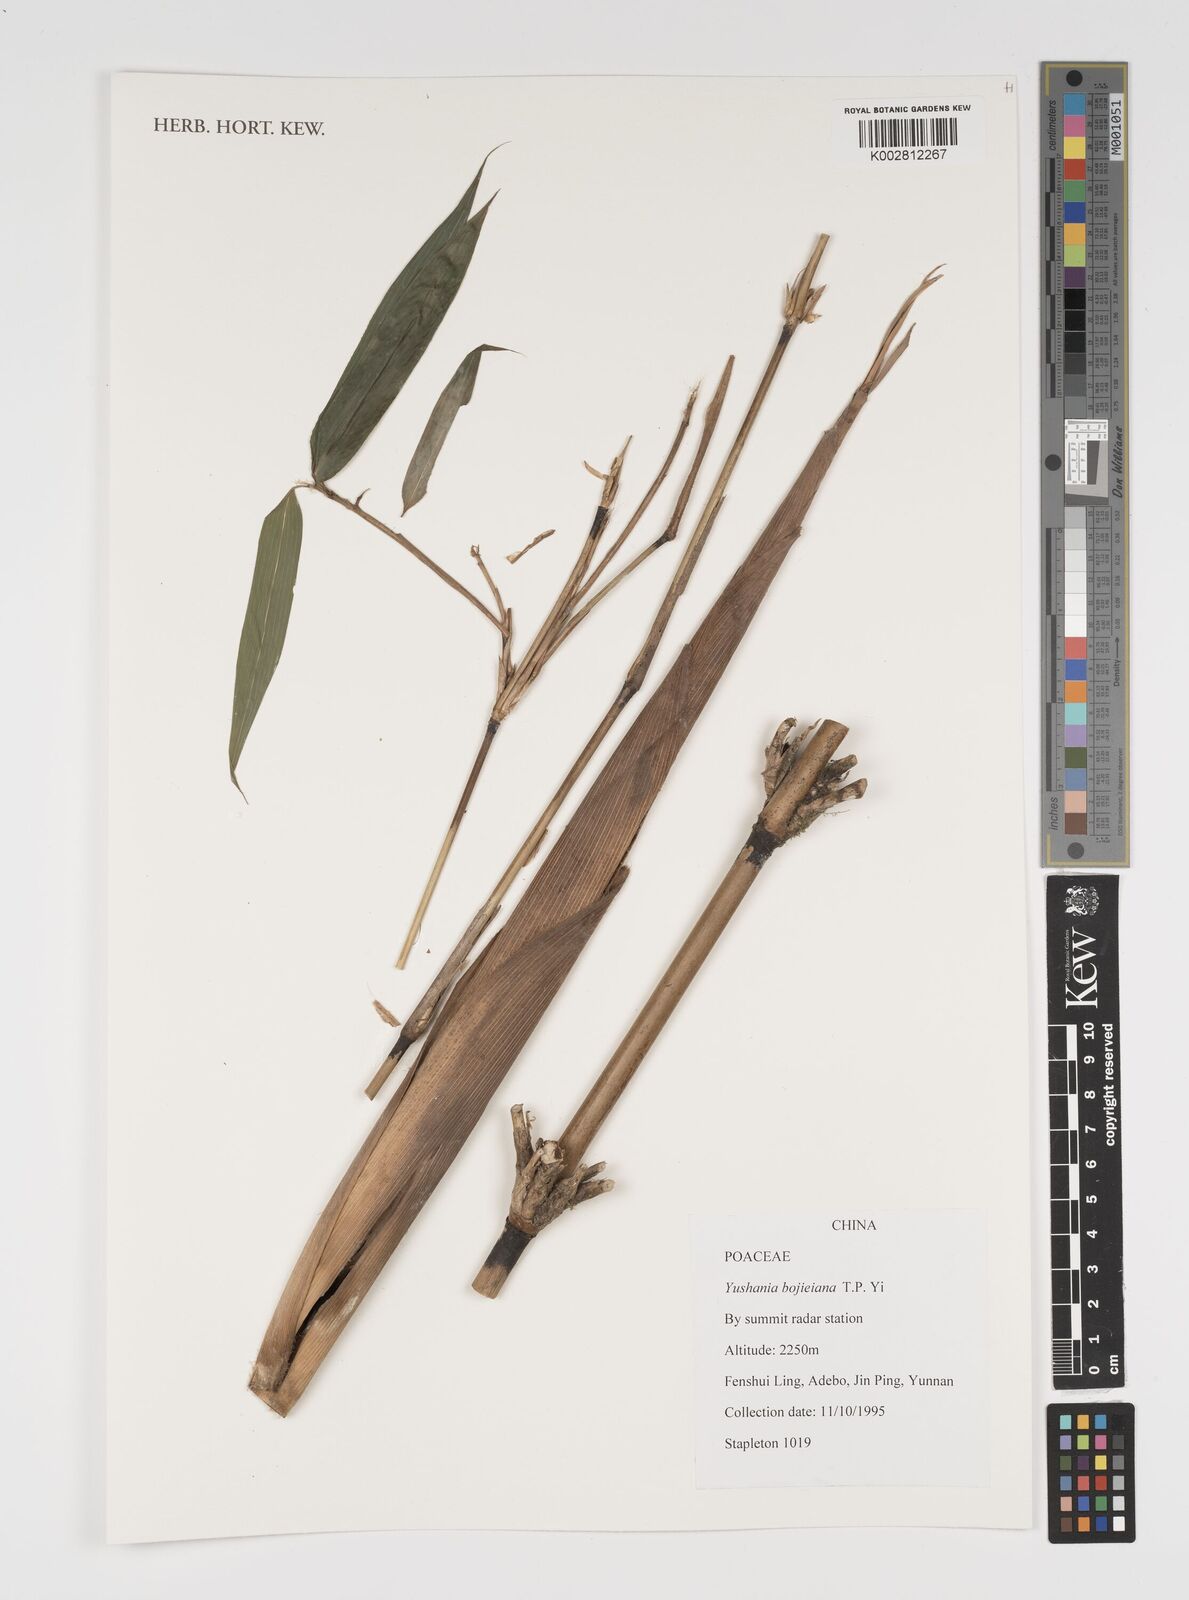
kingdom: Plantae
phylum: Tracheophyta
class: Liliopsida
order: Poales
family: Poaceae
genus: Yushania
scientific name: Yushania bojieiana
